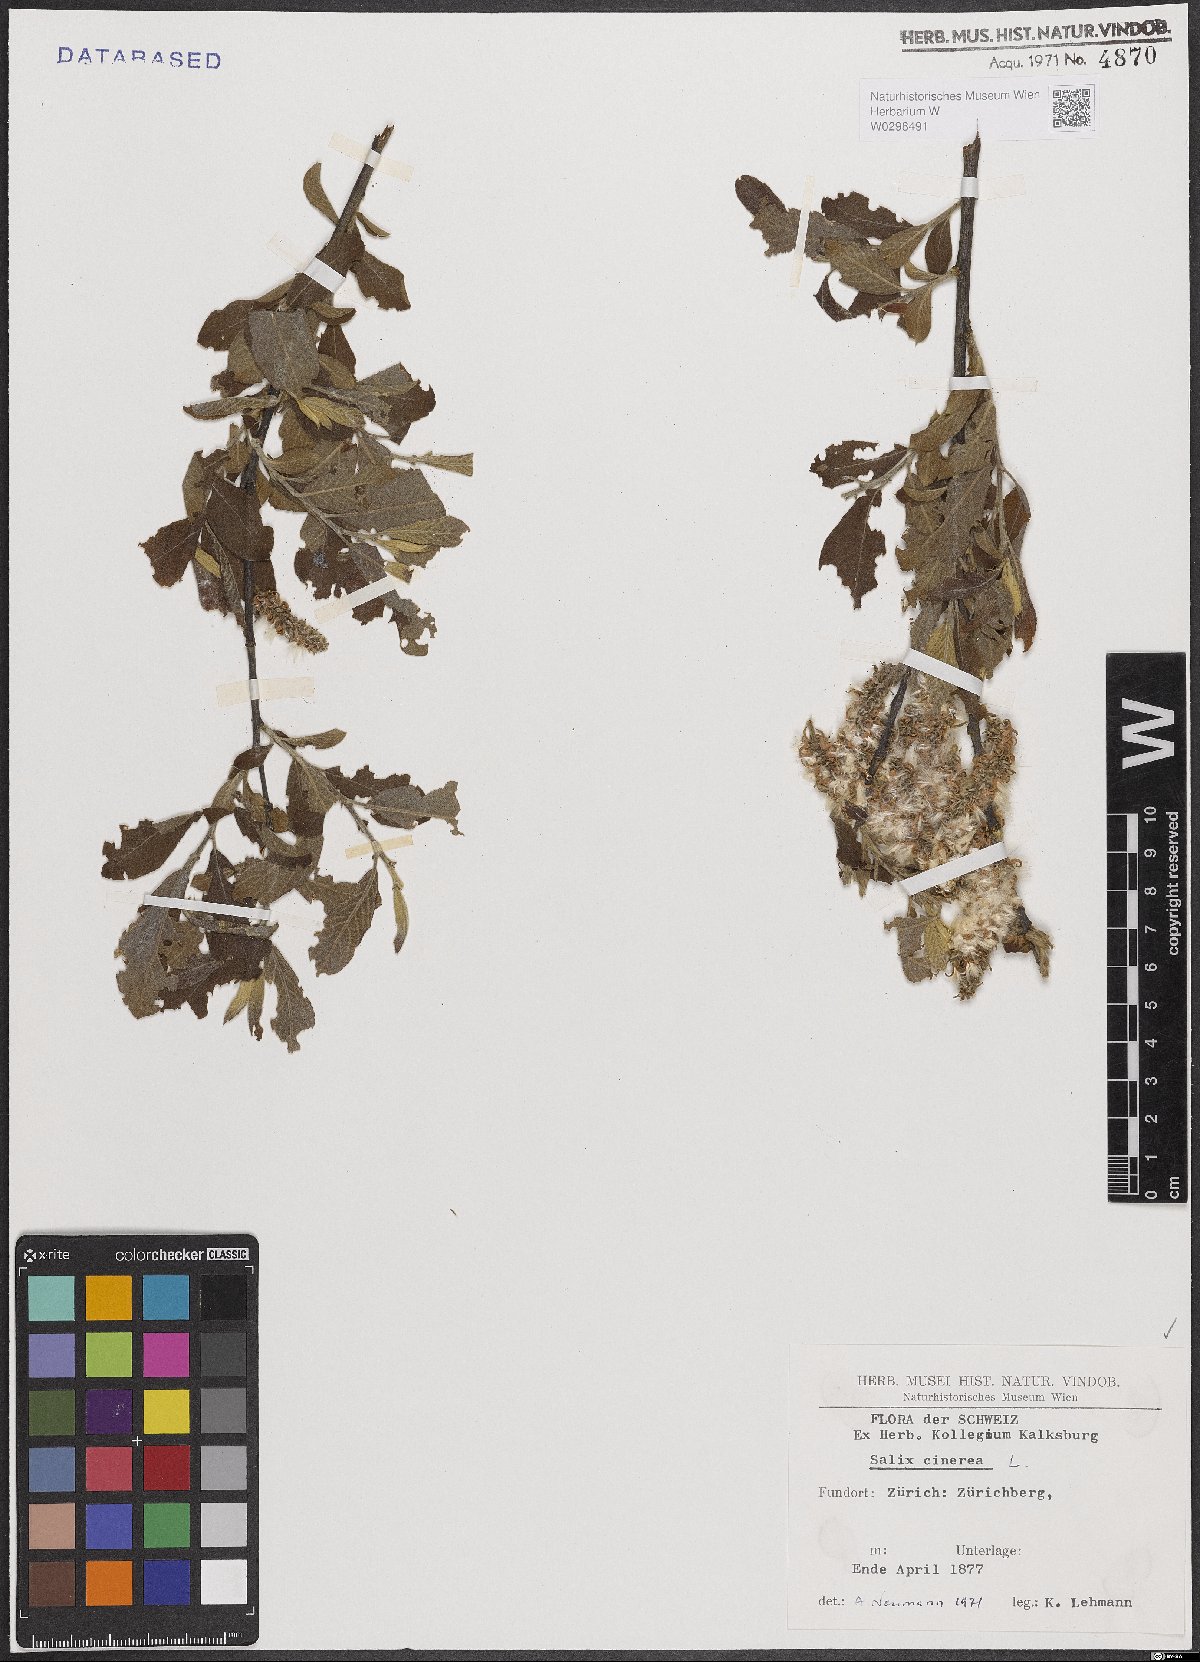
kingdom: Plantae
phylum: Tracheophyta
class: Magnoliopsida
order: Malpighiales
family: Salicaceae
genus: Salix
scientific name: Salix cinerea
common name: Common sallow
